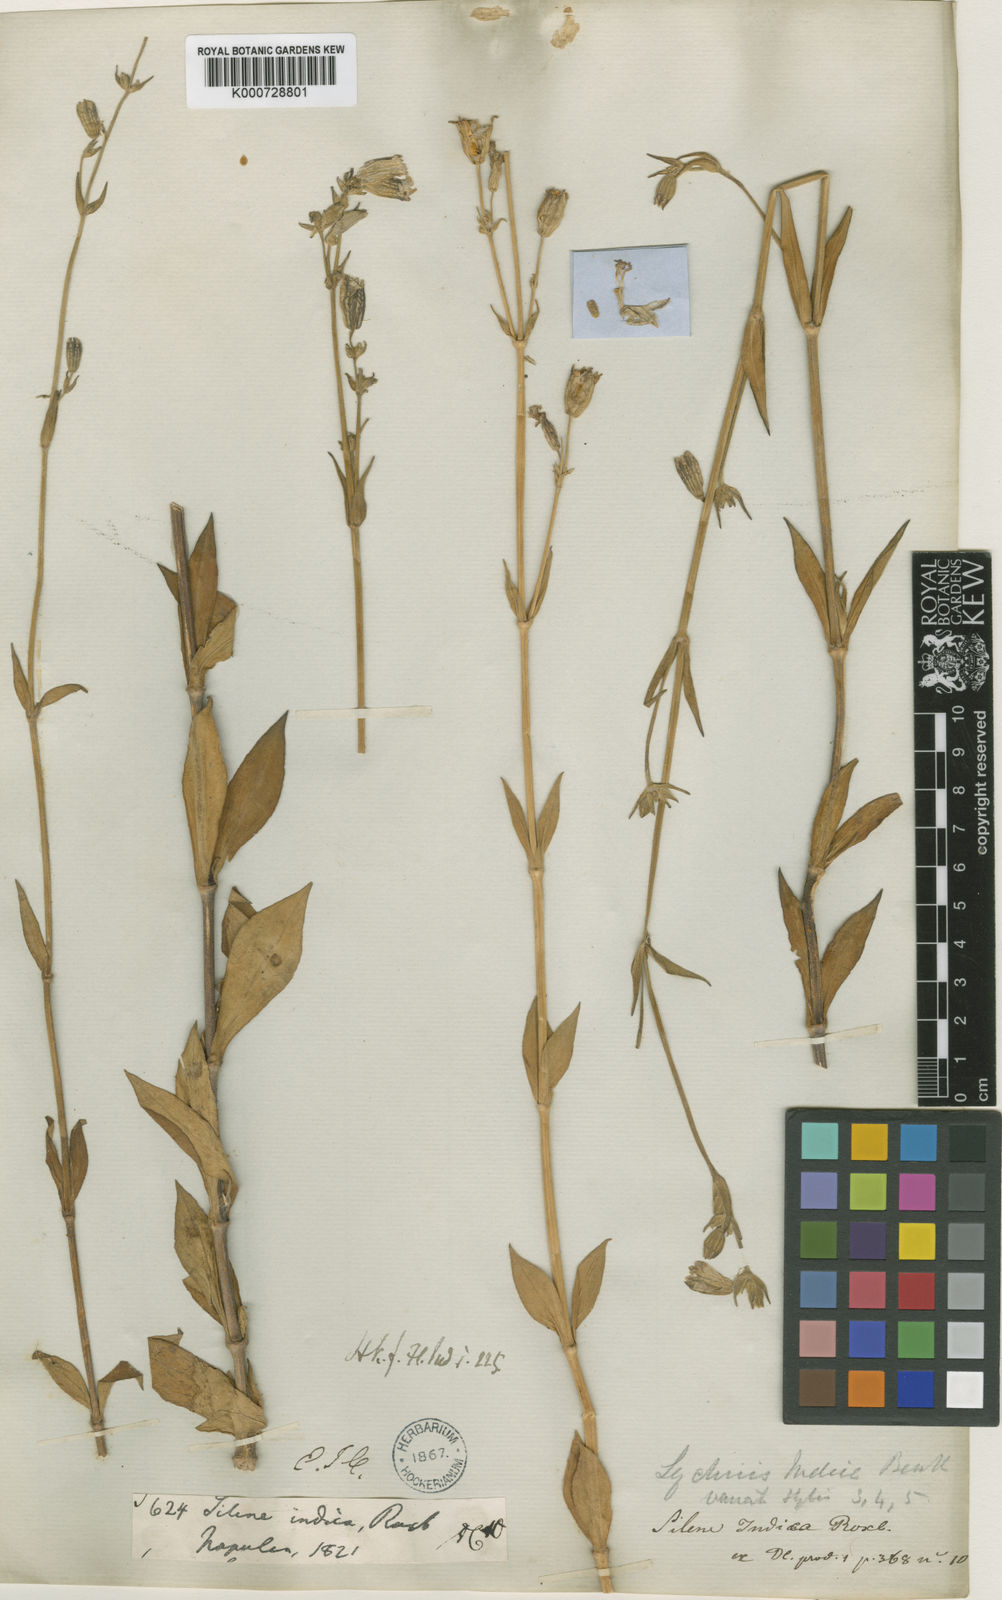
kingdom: Plantae
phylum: Tracheophyta
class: Magnoliopsida
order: Caryophyllales
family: Caryophyllaceae
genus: Silene
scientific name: Silene
